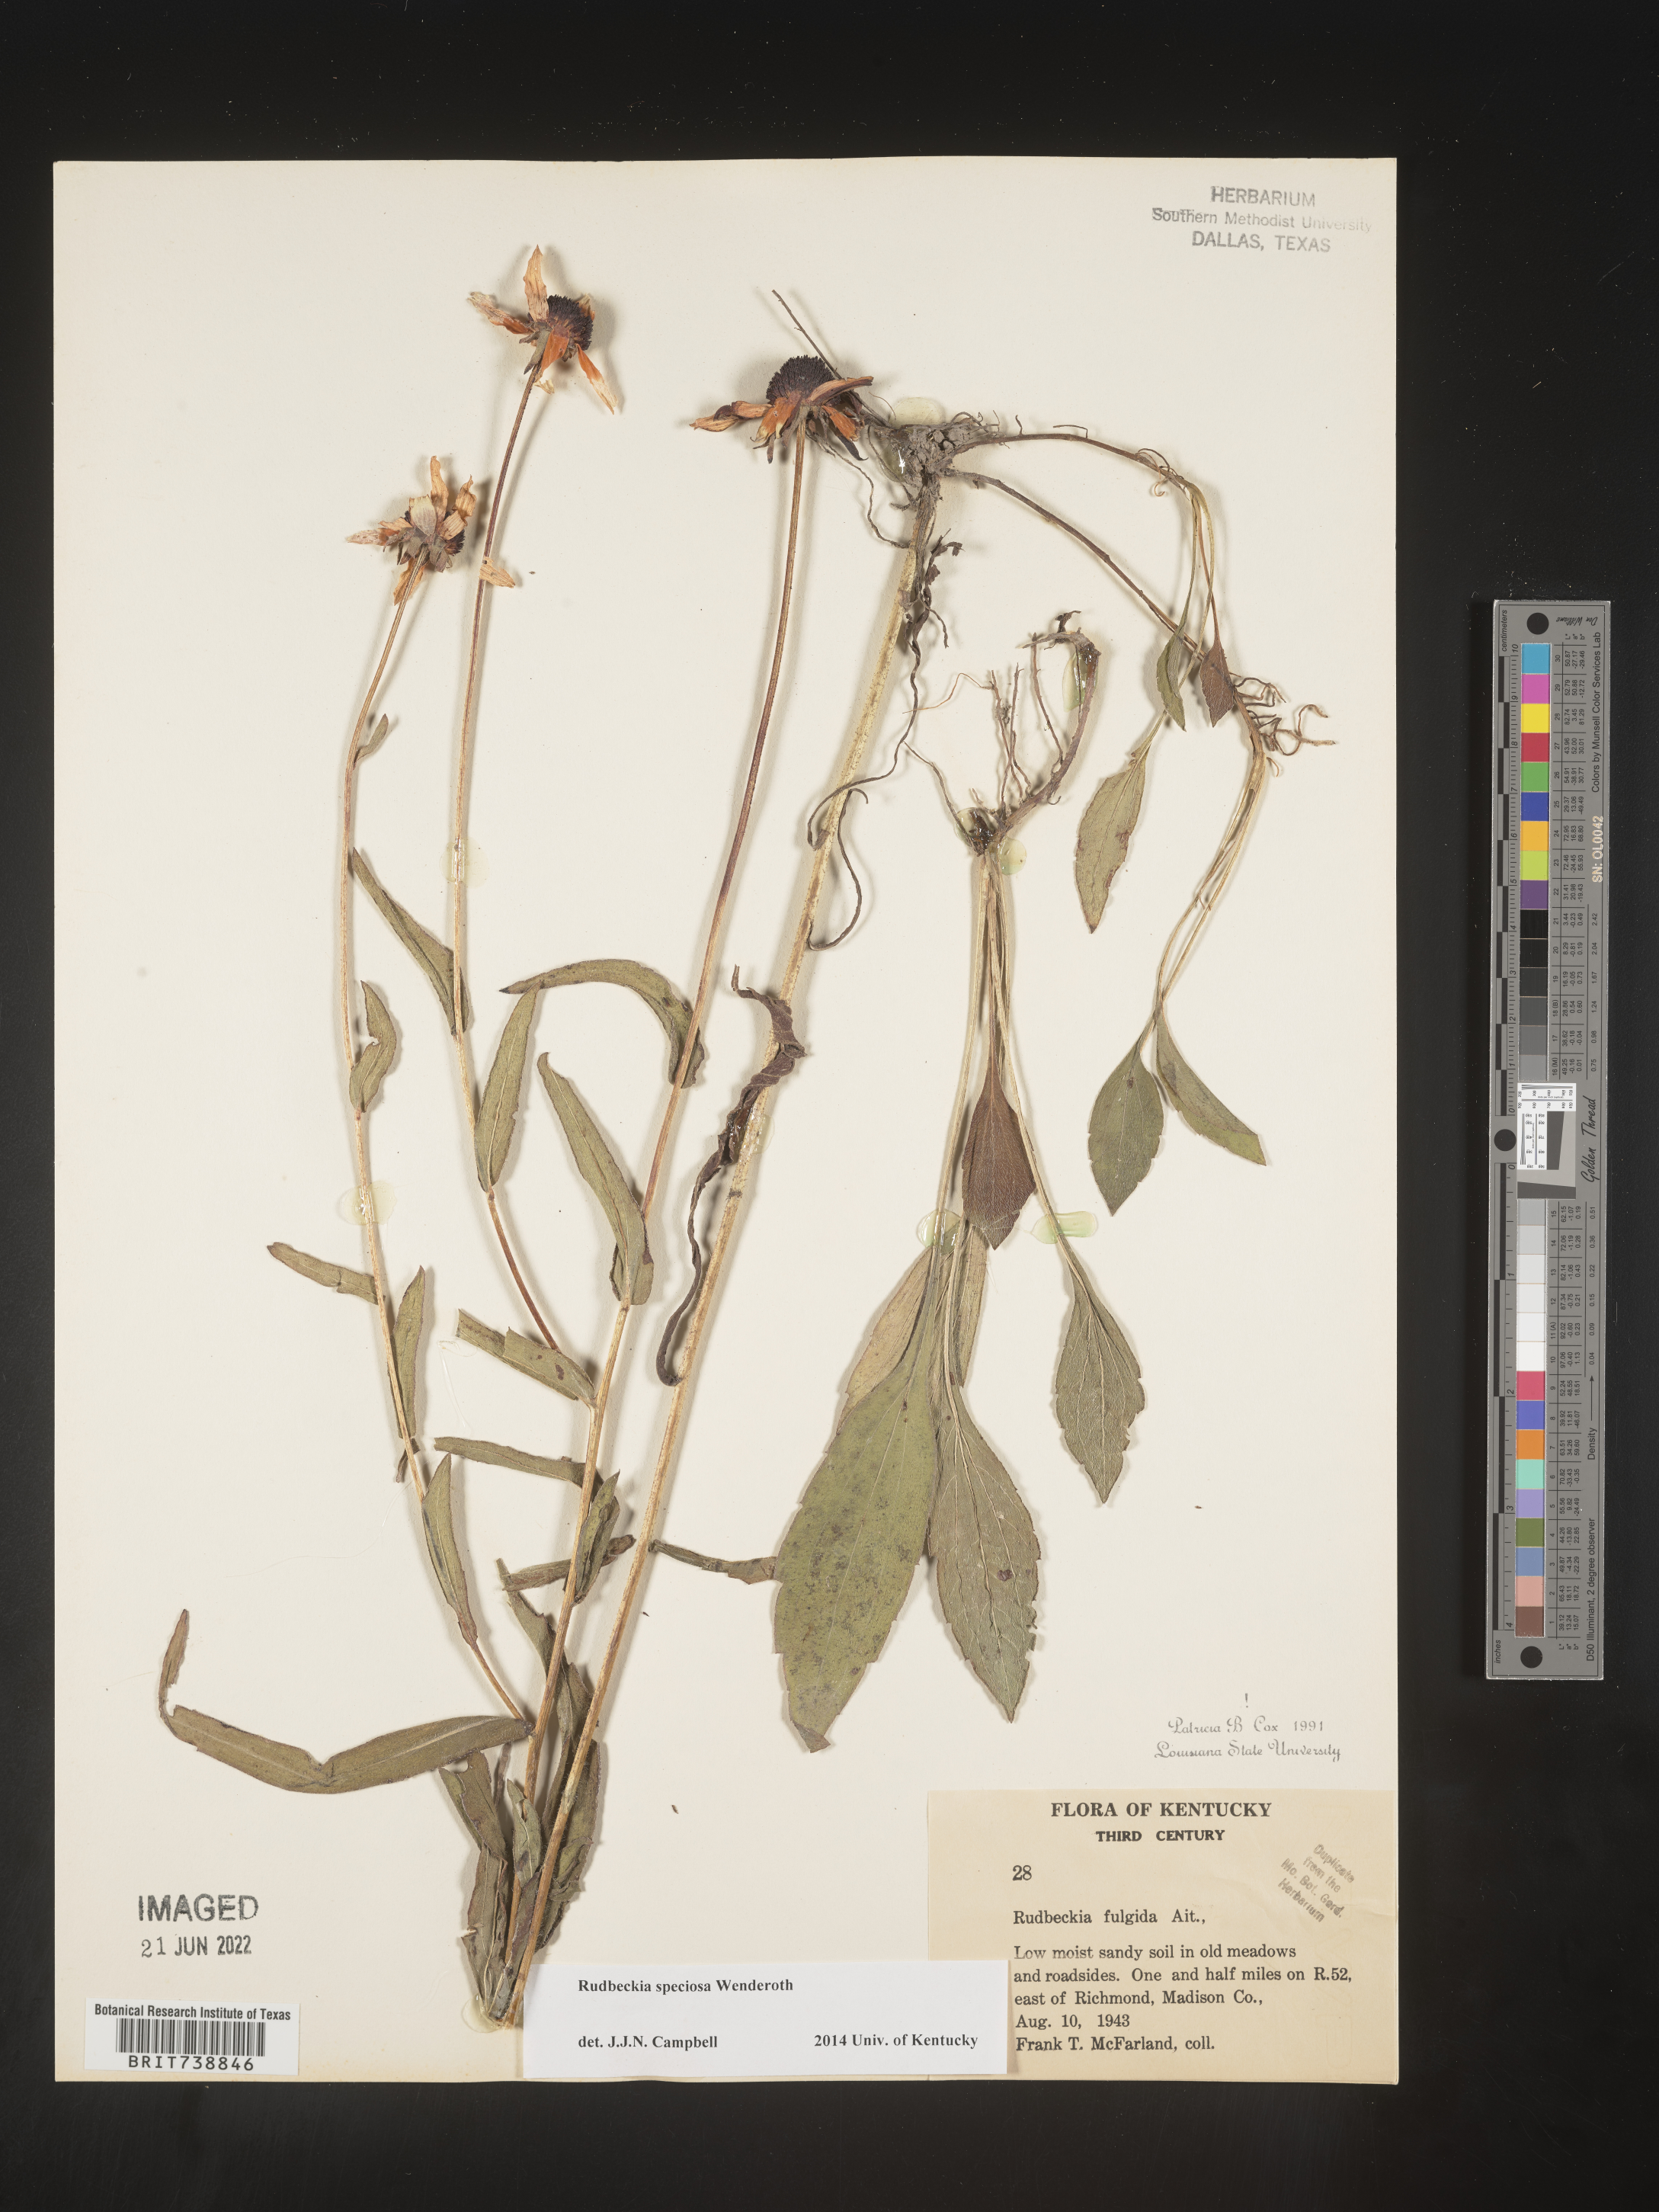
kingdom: Plantae
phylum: Tracheophyta
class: Magnoliopsida
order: Asterales
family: Asteraceae
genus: Rudbeckia
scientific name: Rudbeckia fulgida
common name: Perennial coneflower
